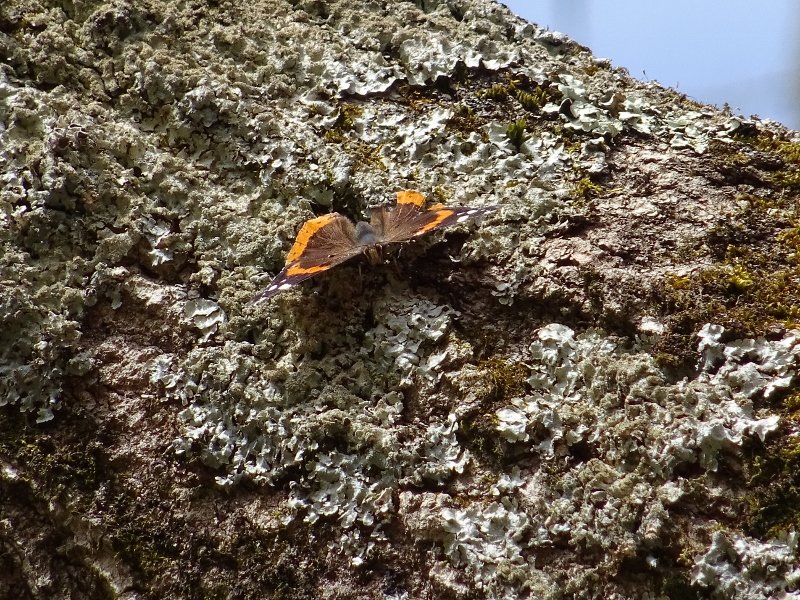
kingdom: Animalia
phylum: Arthropoda
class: Insecta
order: Lepidoptera
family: Nymphalidae
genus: Vanessa
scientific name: Vanessa atalanta
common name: Red Admiral
